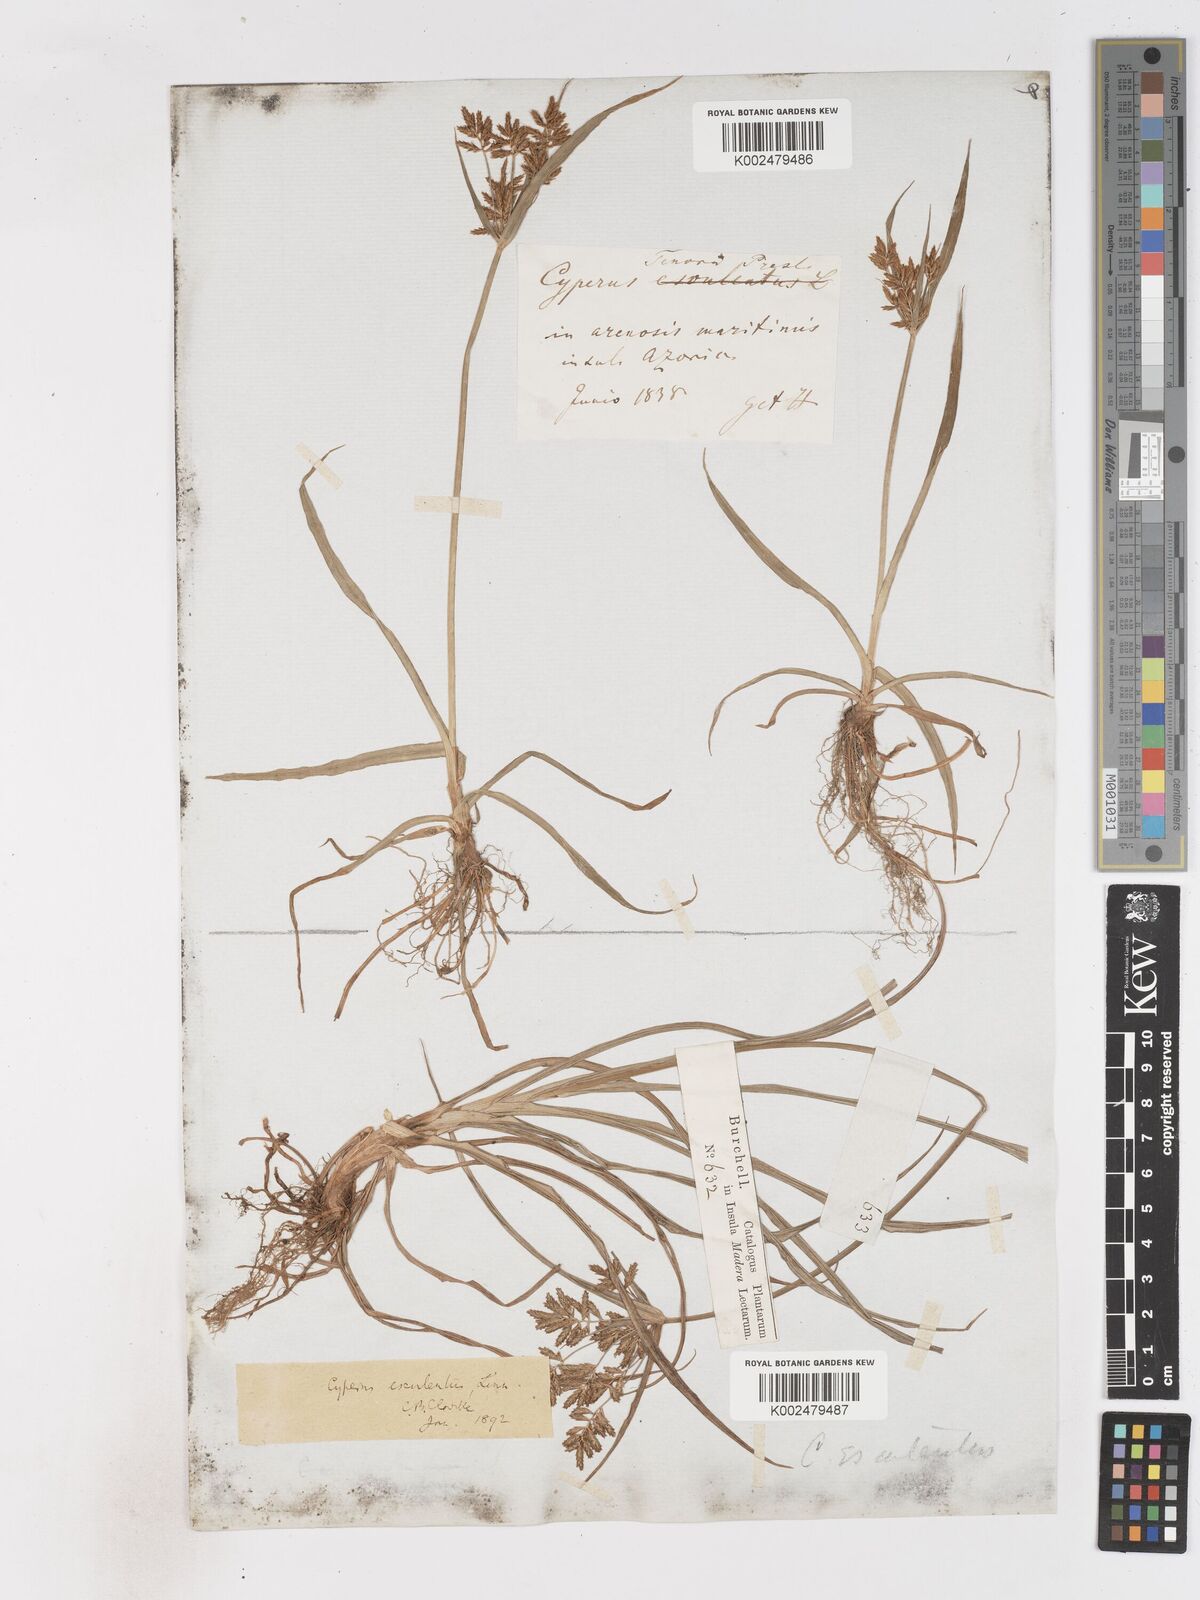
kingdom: Plantae
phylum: Tracheophyta
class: Liliopsida
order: Poales
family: Cyperaceae
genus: Cyperus
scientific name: Cyperus esculentus
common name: Yellow nutsedge
